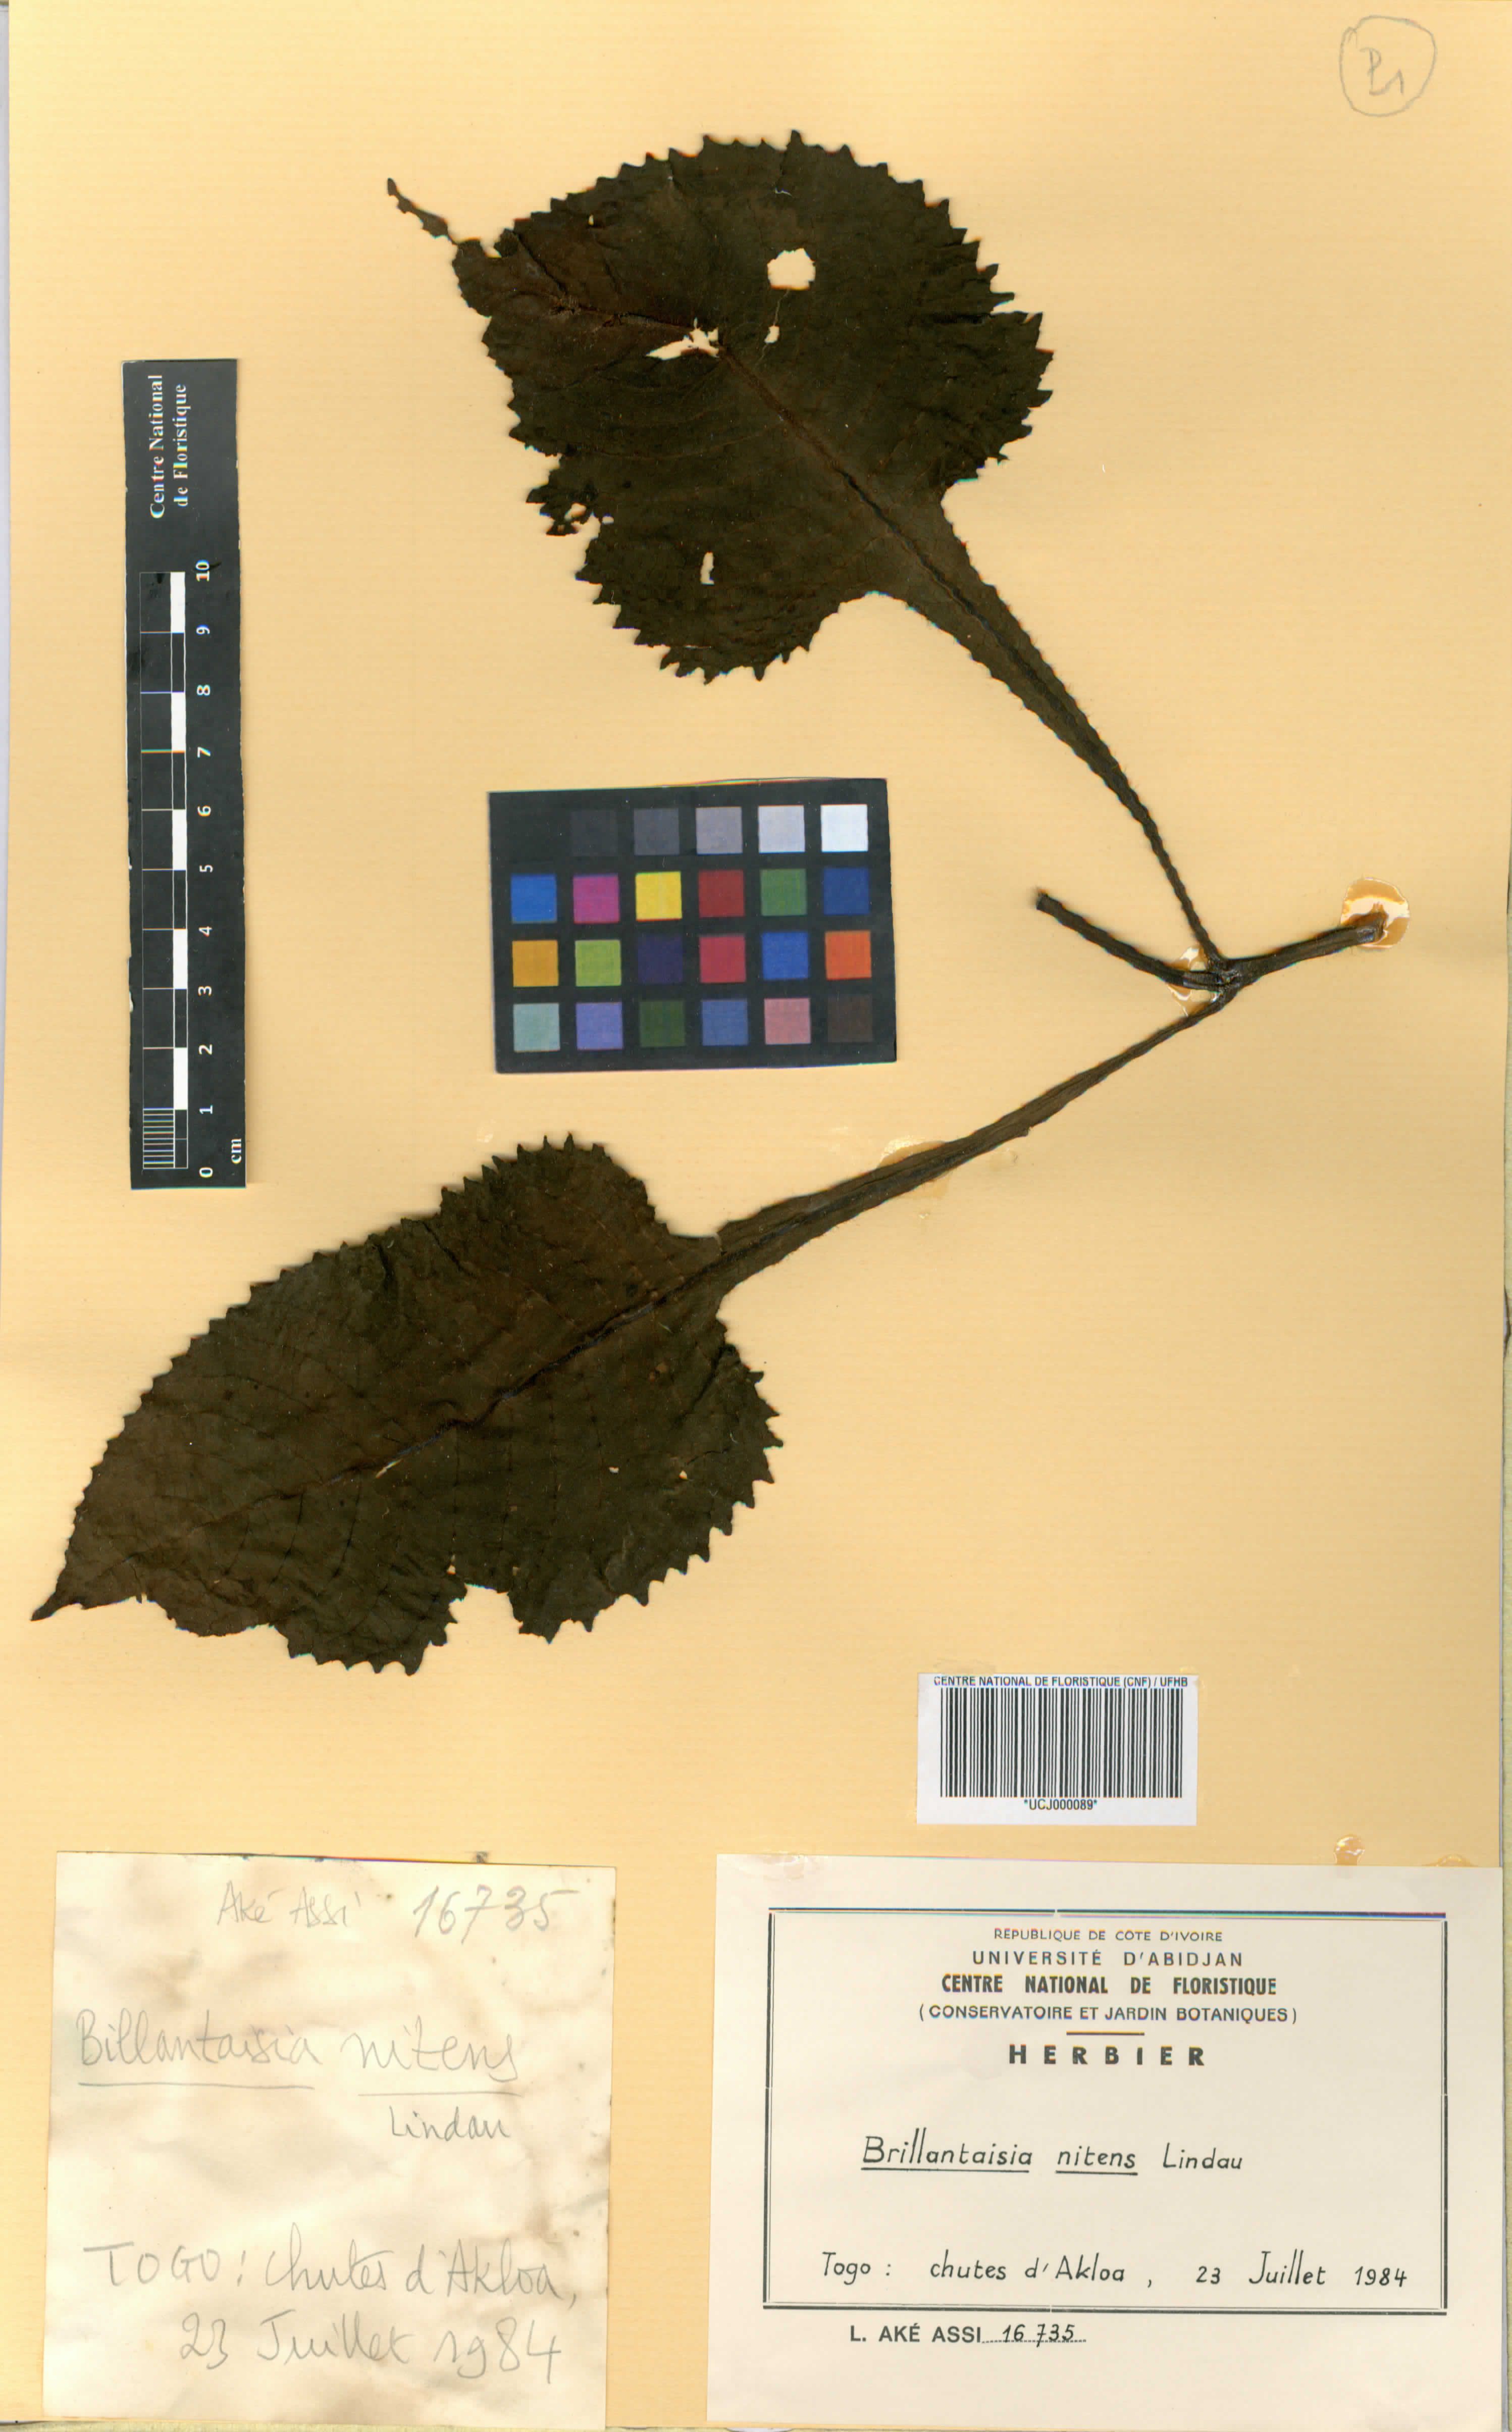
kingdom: Plantae
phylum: Tracheophyta
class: Magnoliopsida
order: Lamiales
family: Acanthaceae
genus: Brillantaisia
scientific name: Brillantaisia owariensis
